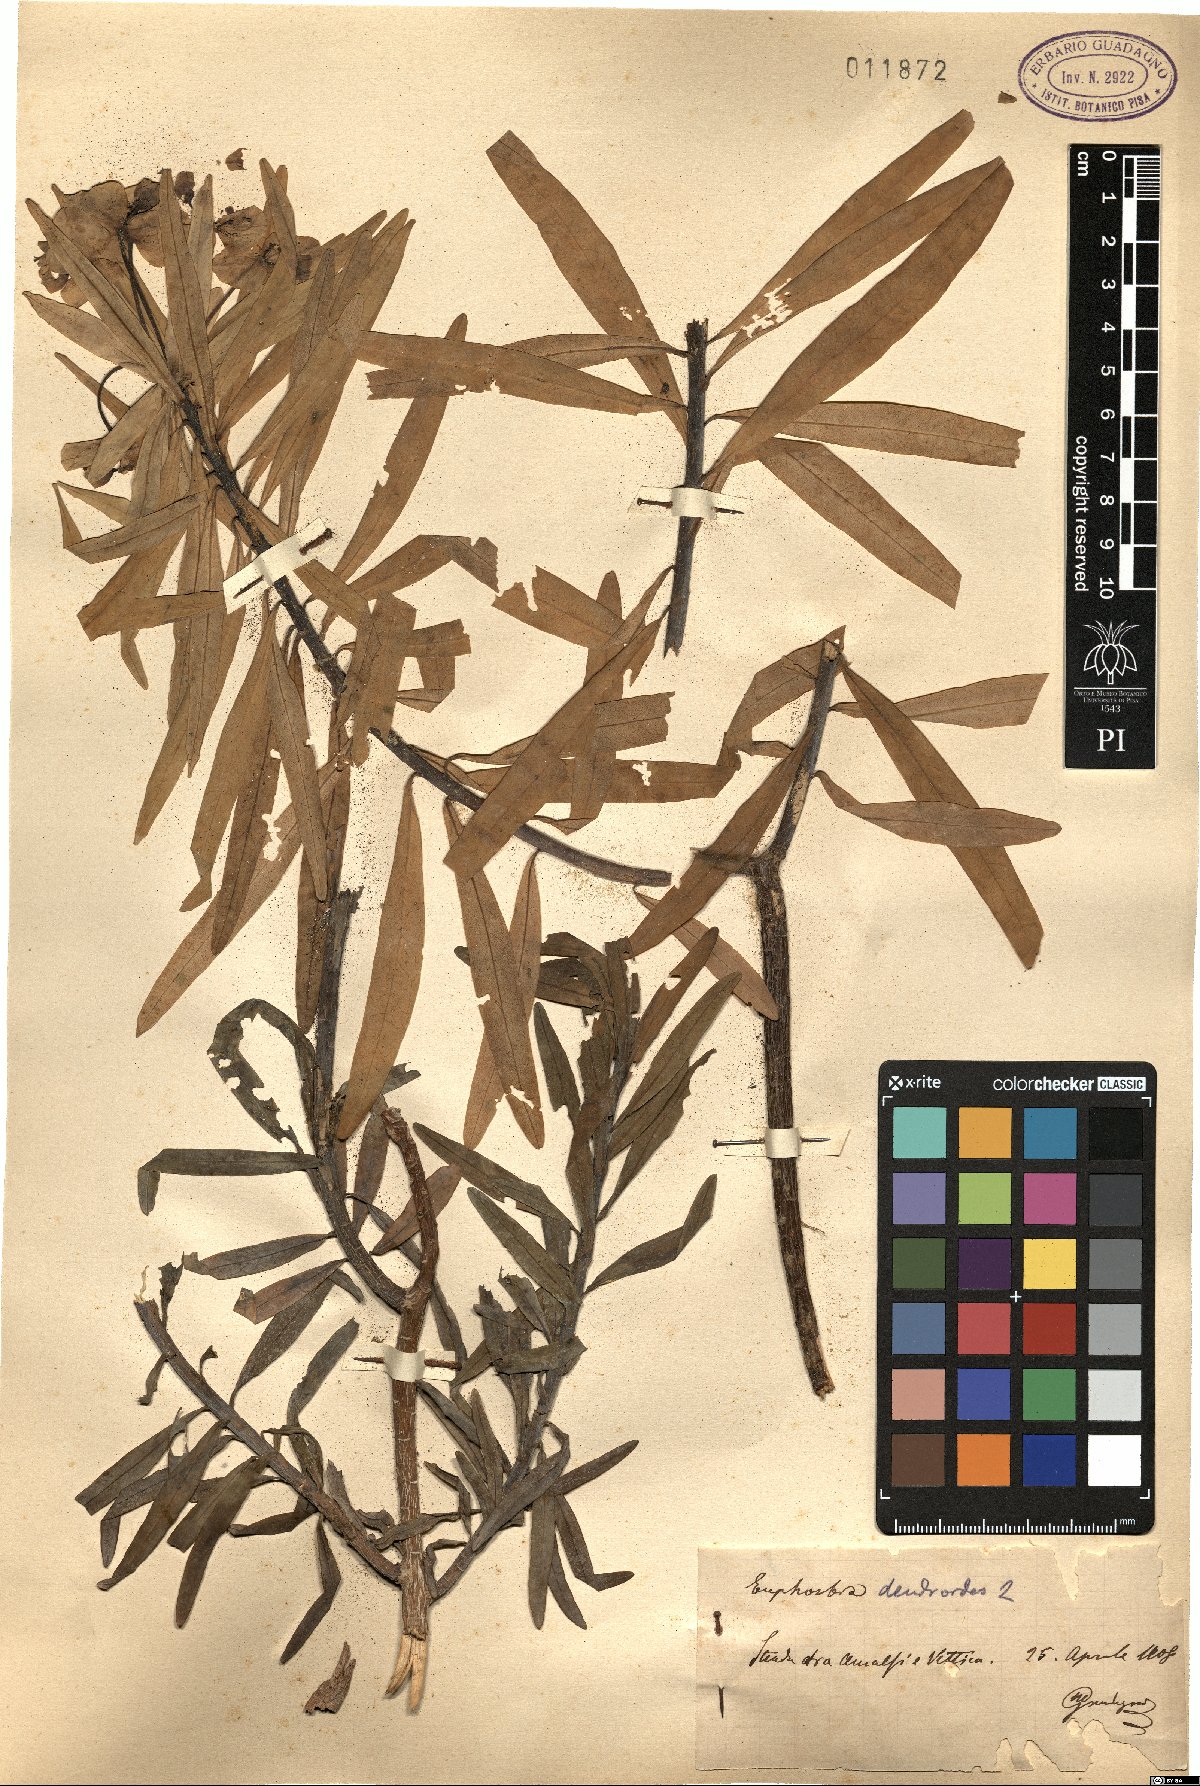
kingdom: Plantae
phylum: Tracheophyta
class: Magnoliopsida
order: Malpighiales
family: Euphorbiaceae
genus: Euphorbia
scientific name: Euphorbia dendroides
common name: Tree spurge
